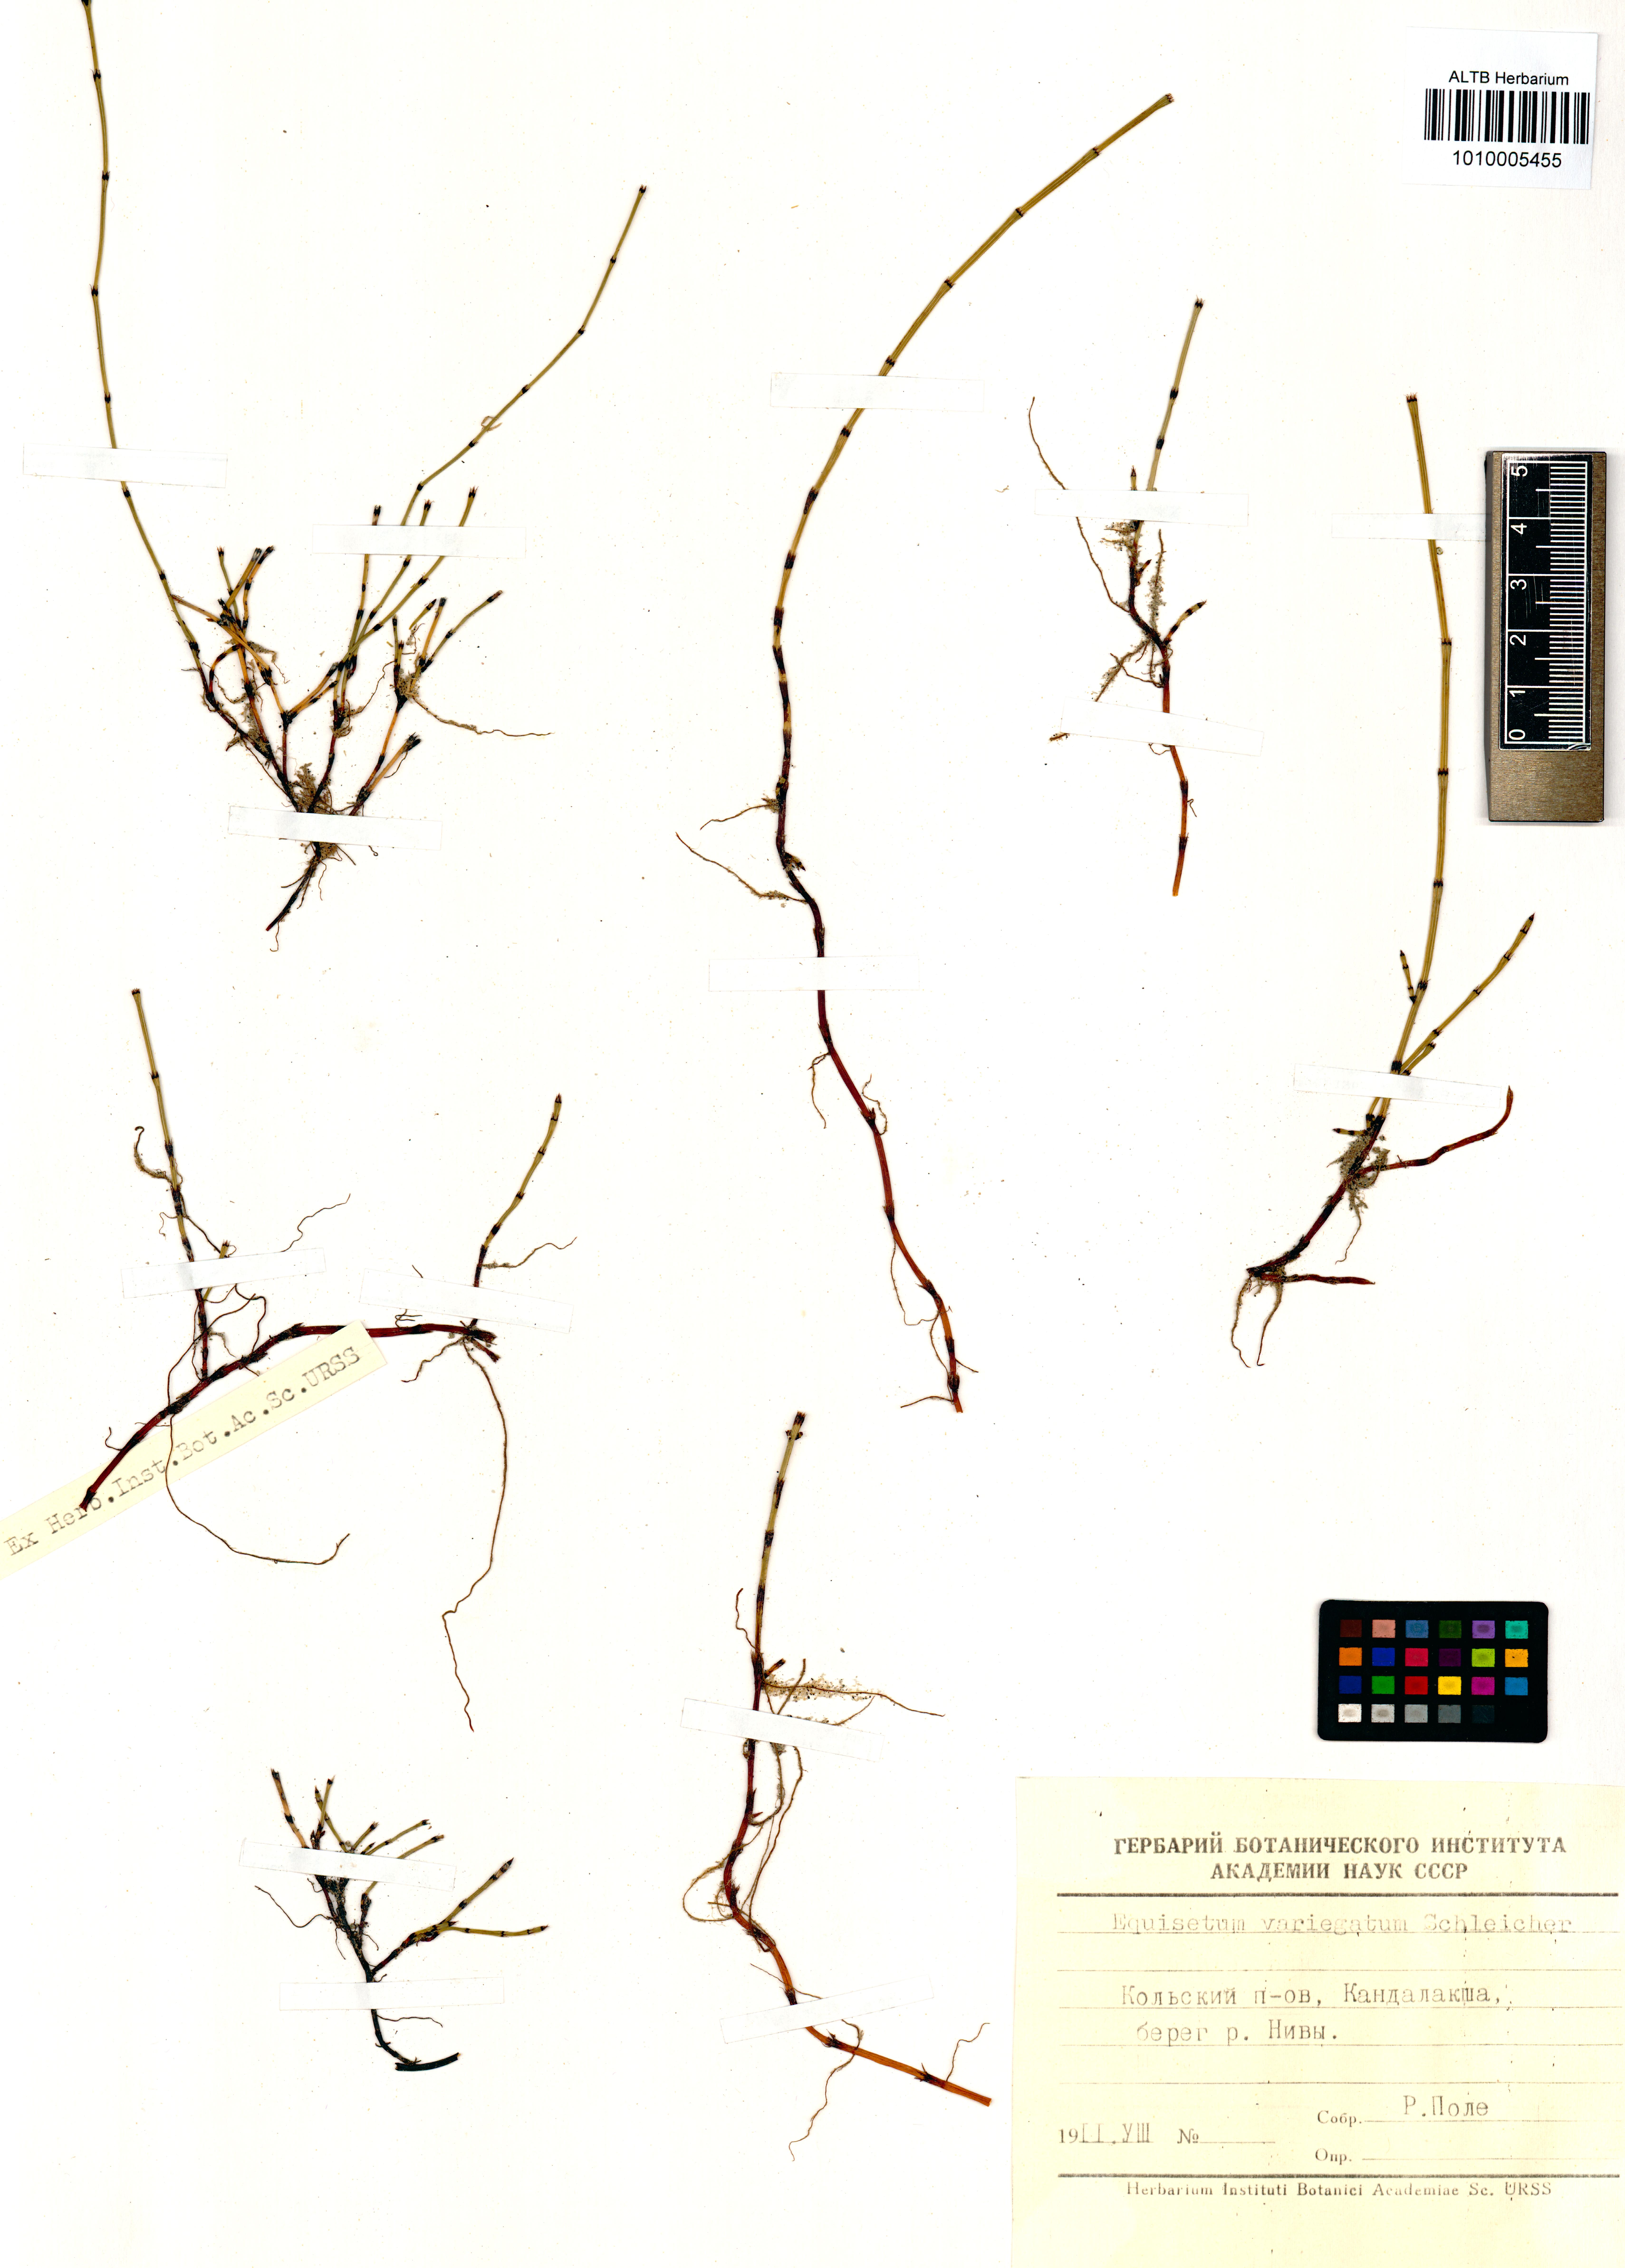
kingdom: Plantae
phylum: Tracheophyta
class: Polypodiopsida
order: Equisetales
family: Equisetaceae
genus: Equisetum
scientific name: Equisetum variegatum
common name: Variegated horsetail
